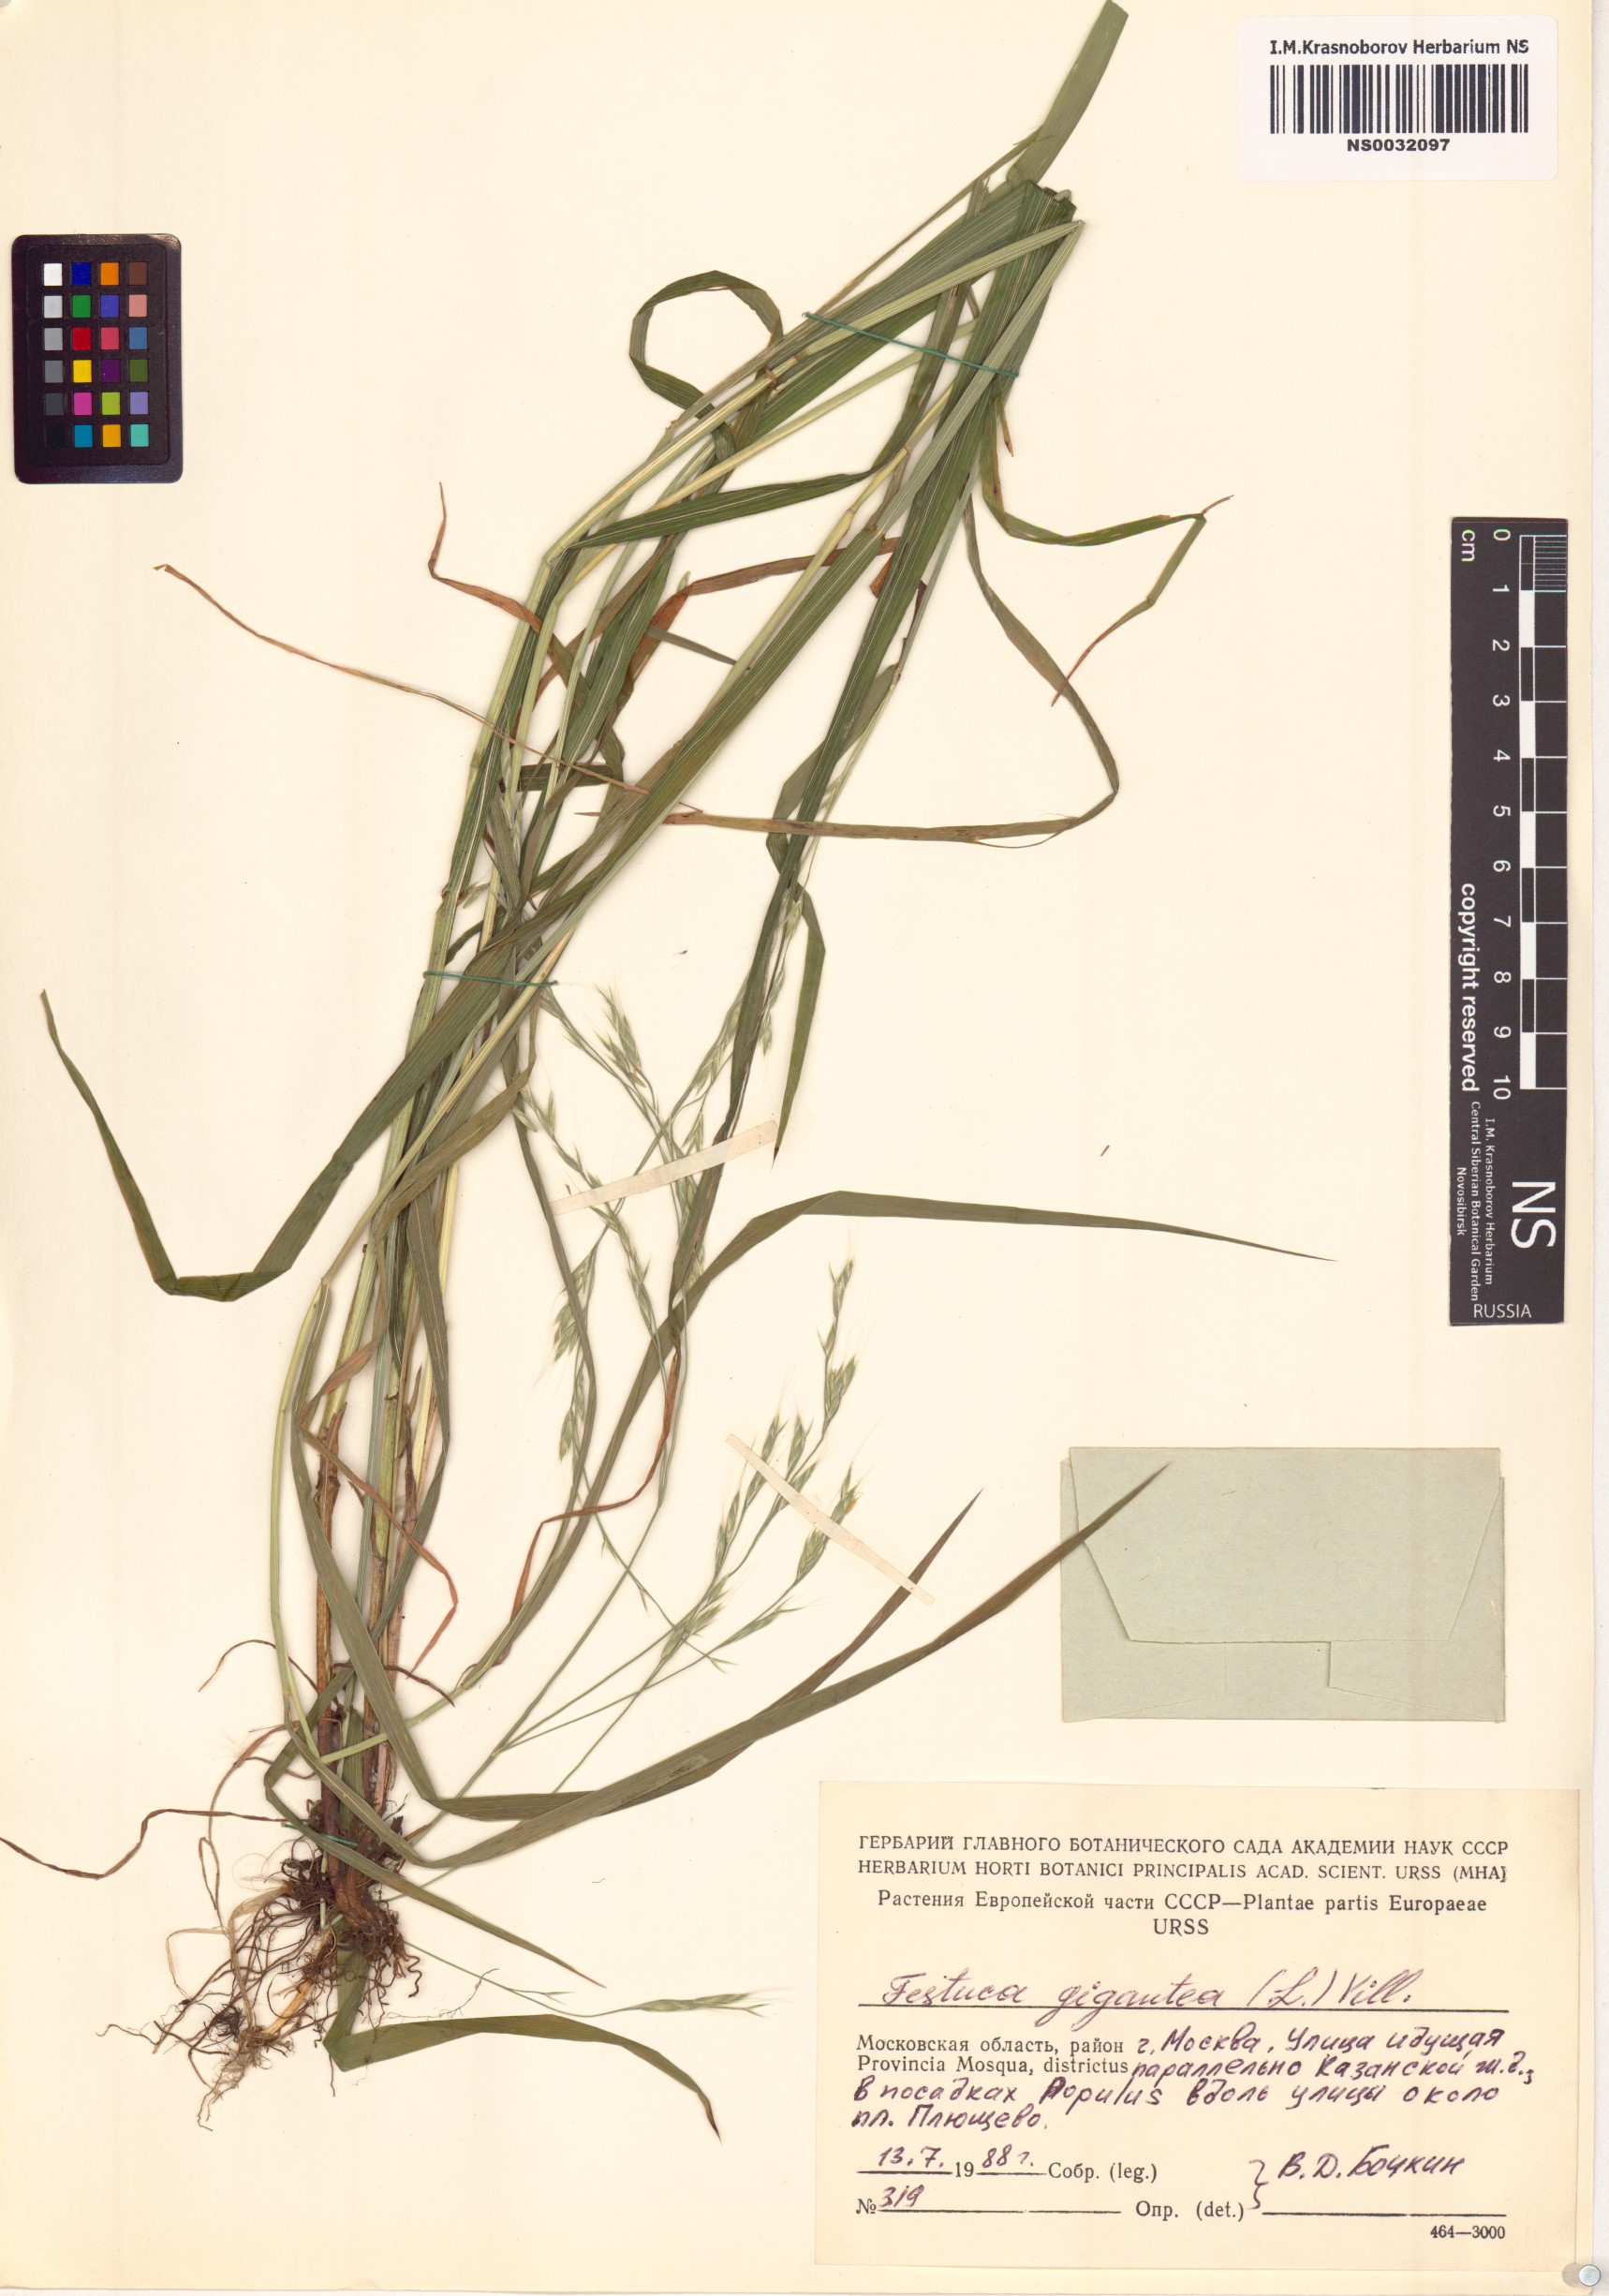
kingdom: Plantae
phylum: Tracheophyta
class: Liliopsida
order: Poales
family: Poaceae
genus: Lolium
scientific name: Lolium giganteum
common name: Giant fescue
